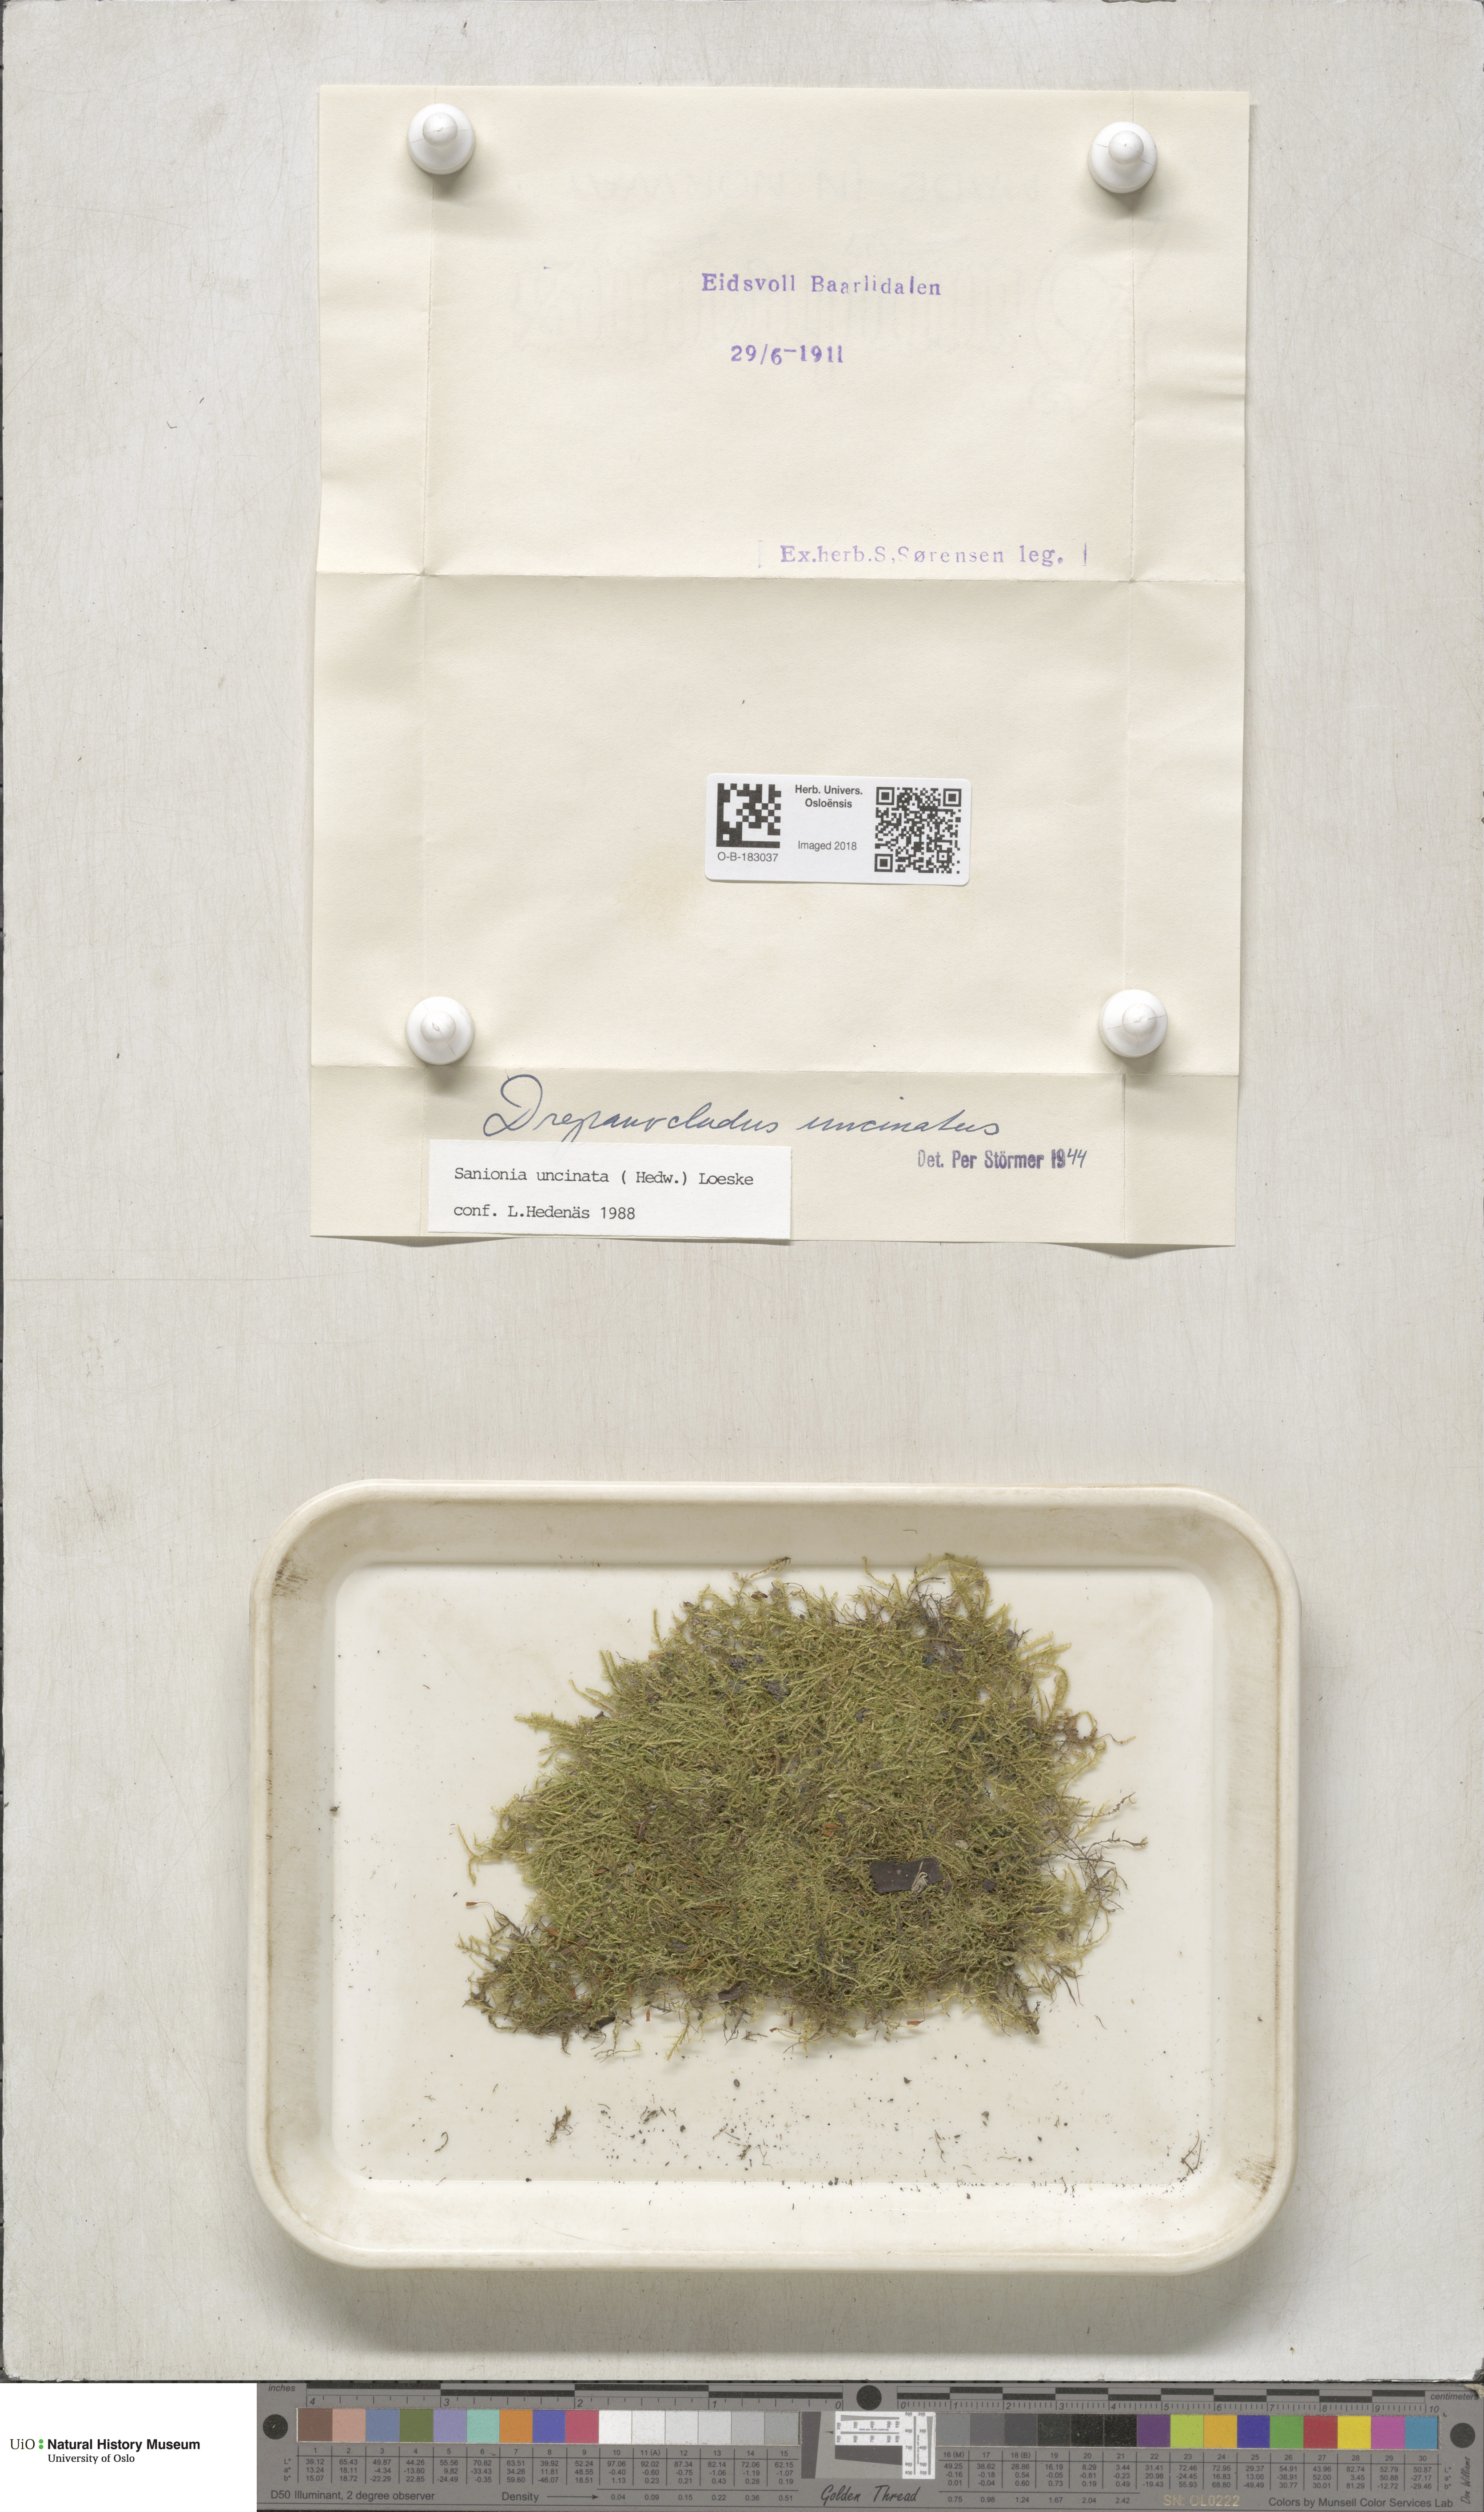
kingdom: Plantae
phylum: Bryophyta
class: Bryopsida
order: Hypnales
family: Scorpidiaceae
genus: Sanionia
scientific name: Sanionia uncinata
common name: Sickle moss
